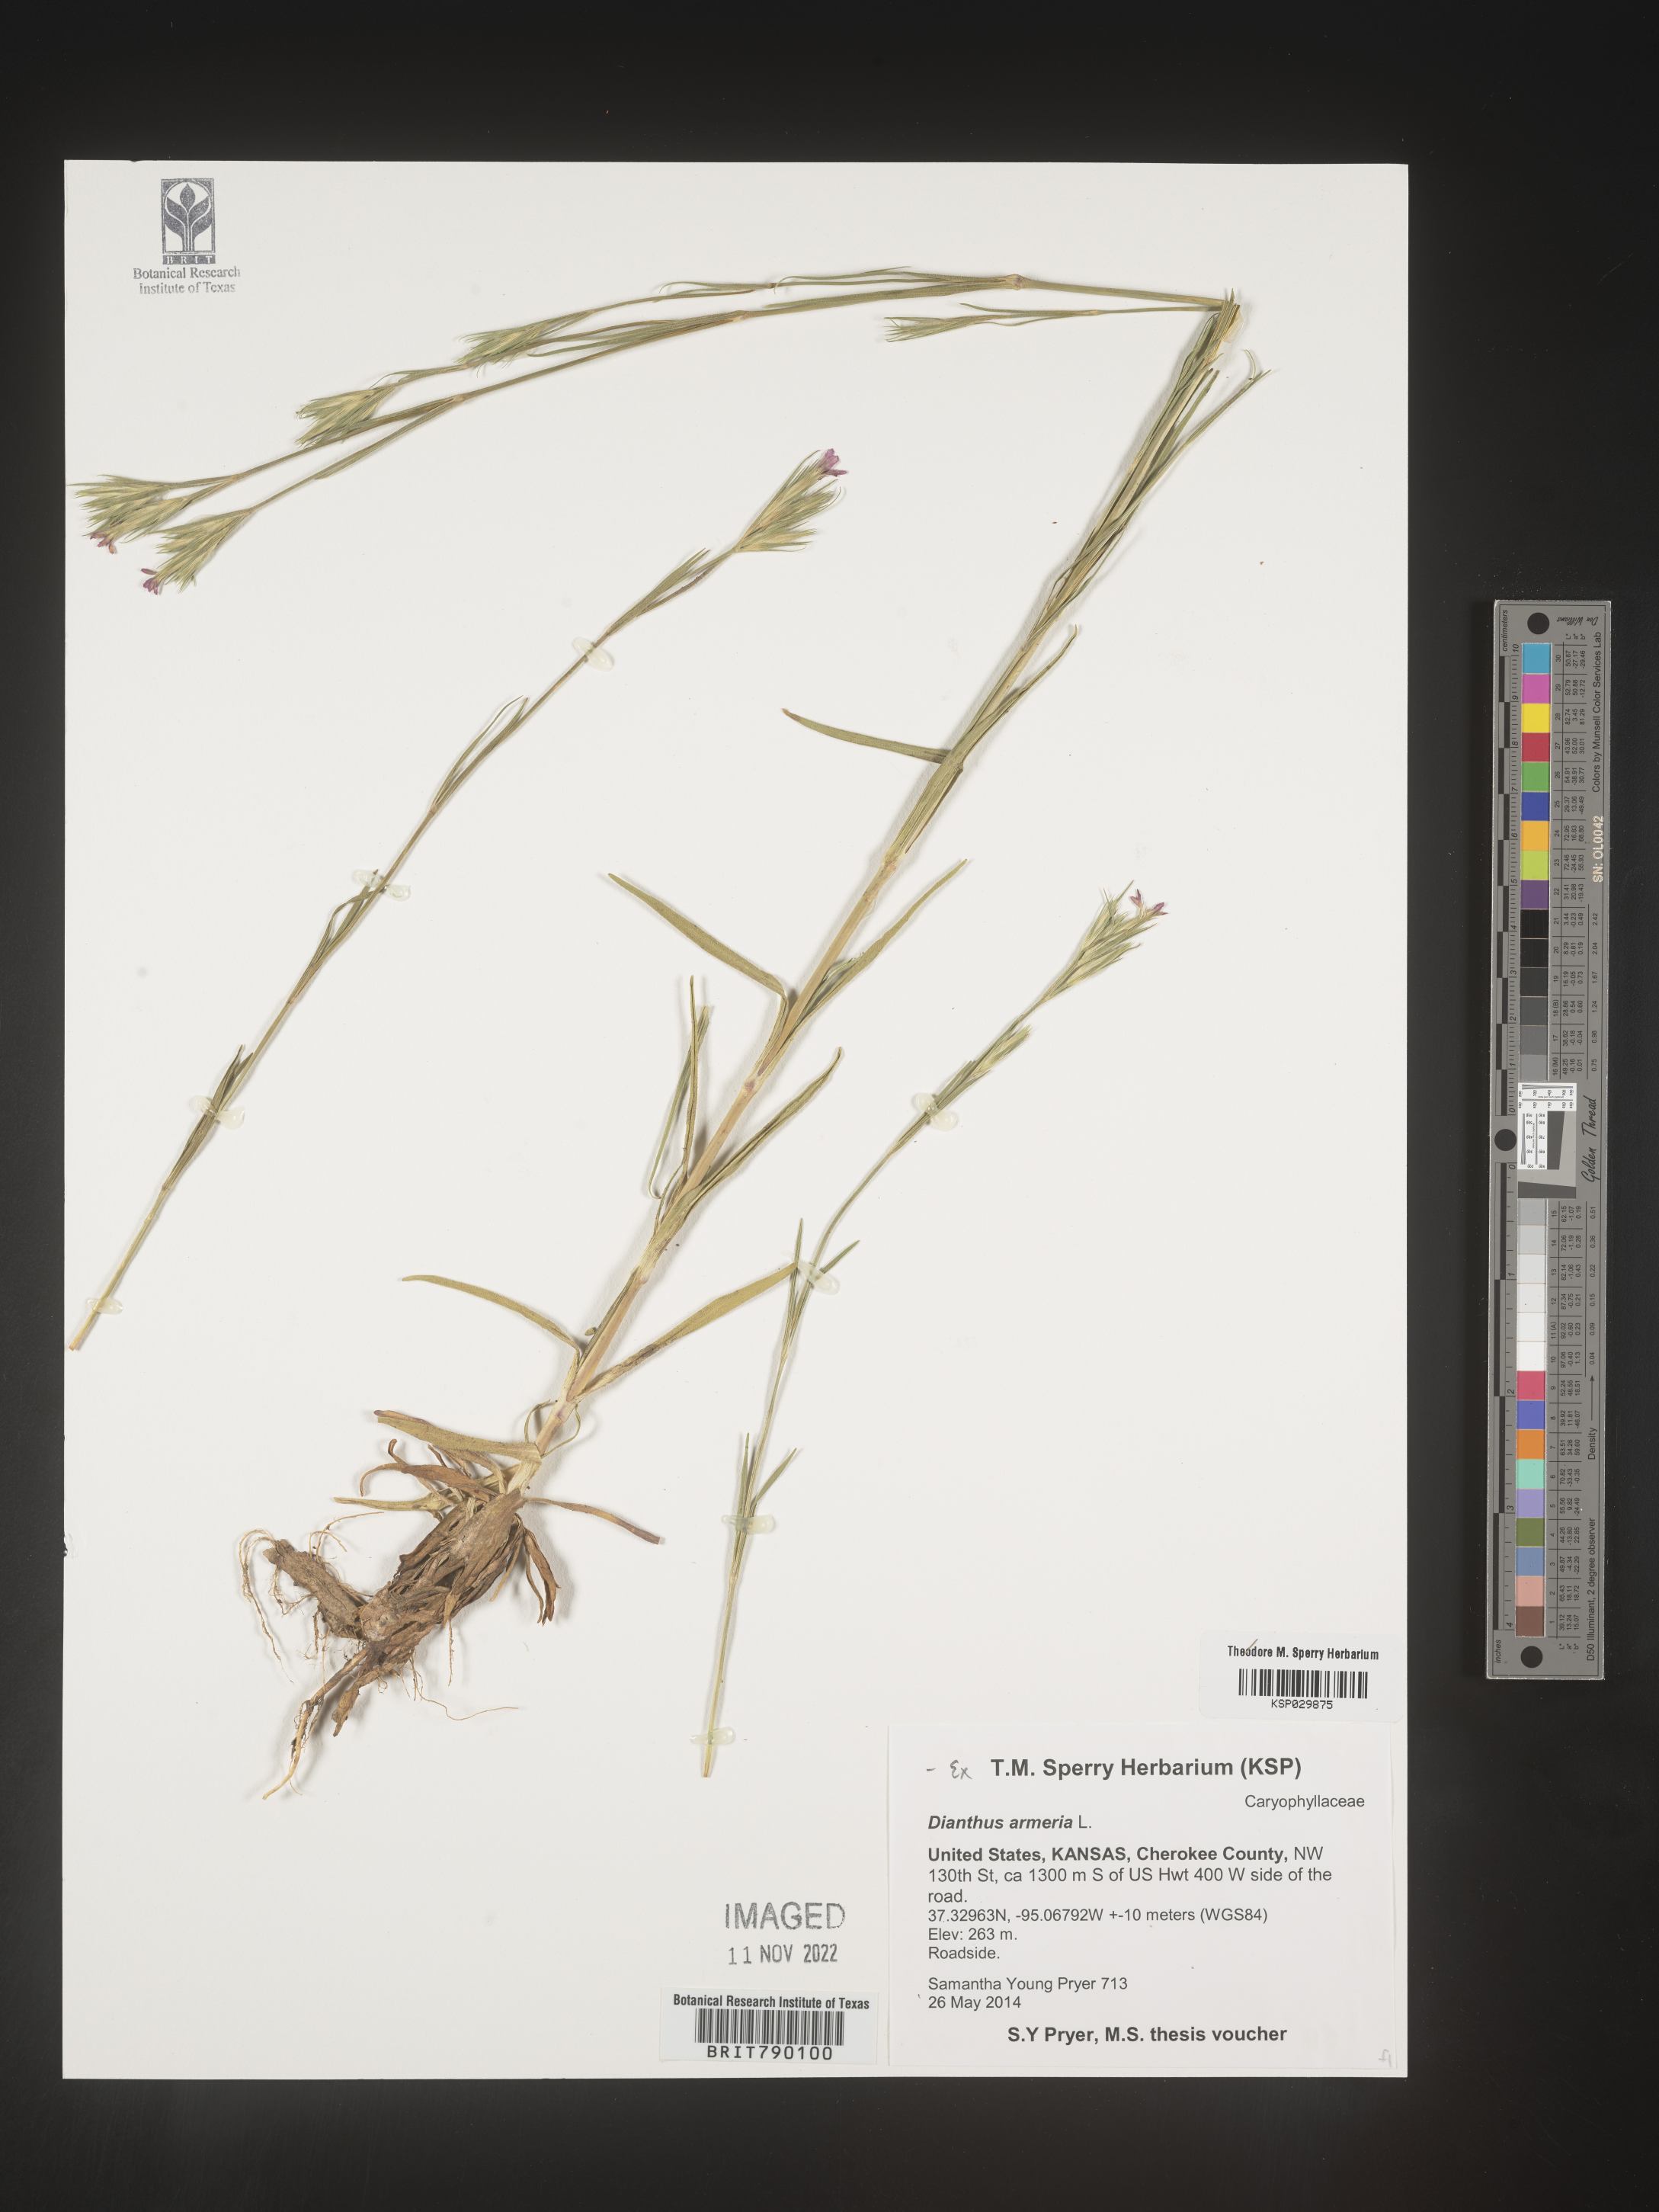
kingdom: Plantae
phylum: Tracheophyta
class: Magnoliopsida
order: Caryophyllales
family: Caryophyllaceae
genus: Dianthus
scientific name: Dianthus armeria
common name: Deptford pink
